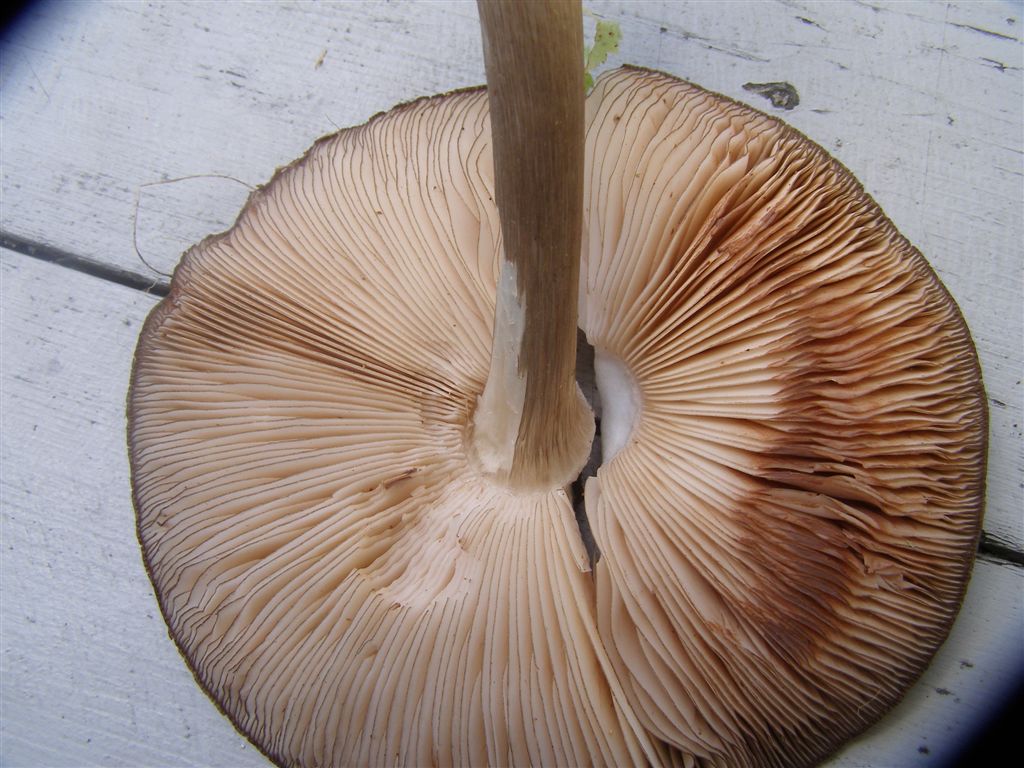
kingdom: Fungi
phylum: Basidiomycota
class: Agaricomycetes
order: Agaricales
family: Pluteaceae
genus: Pluteus
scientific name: Pluteus atromarginatus
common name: sortrandet skærmhat
